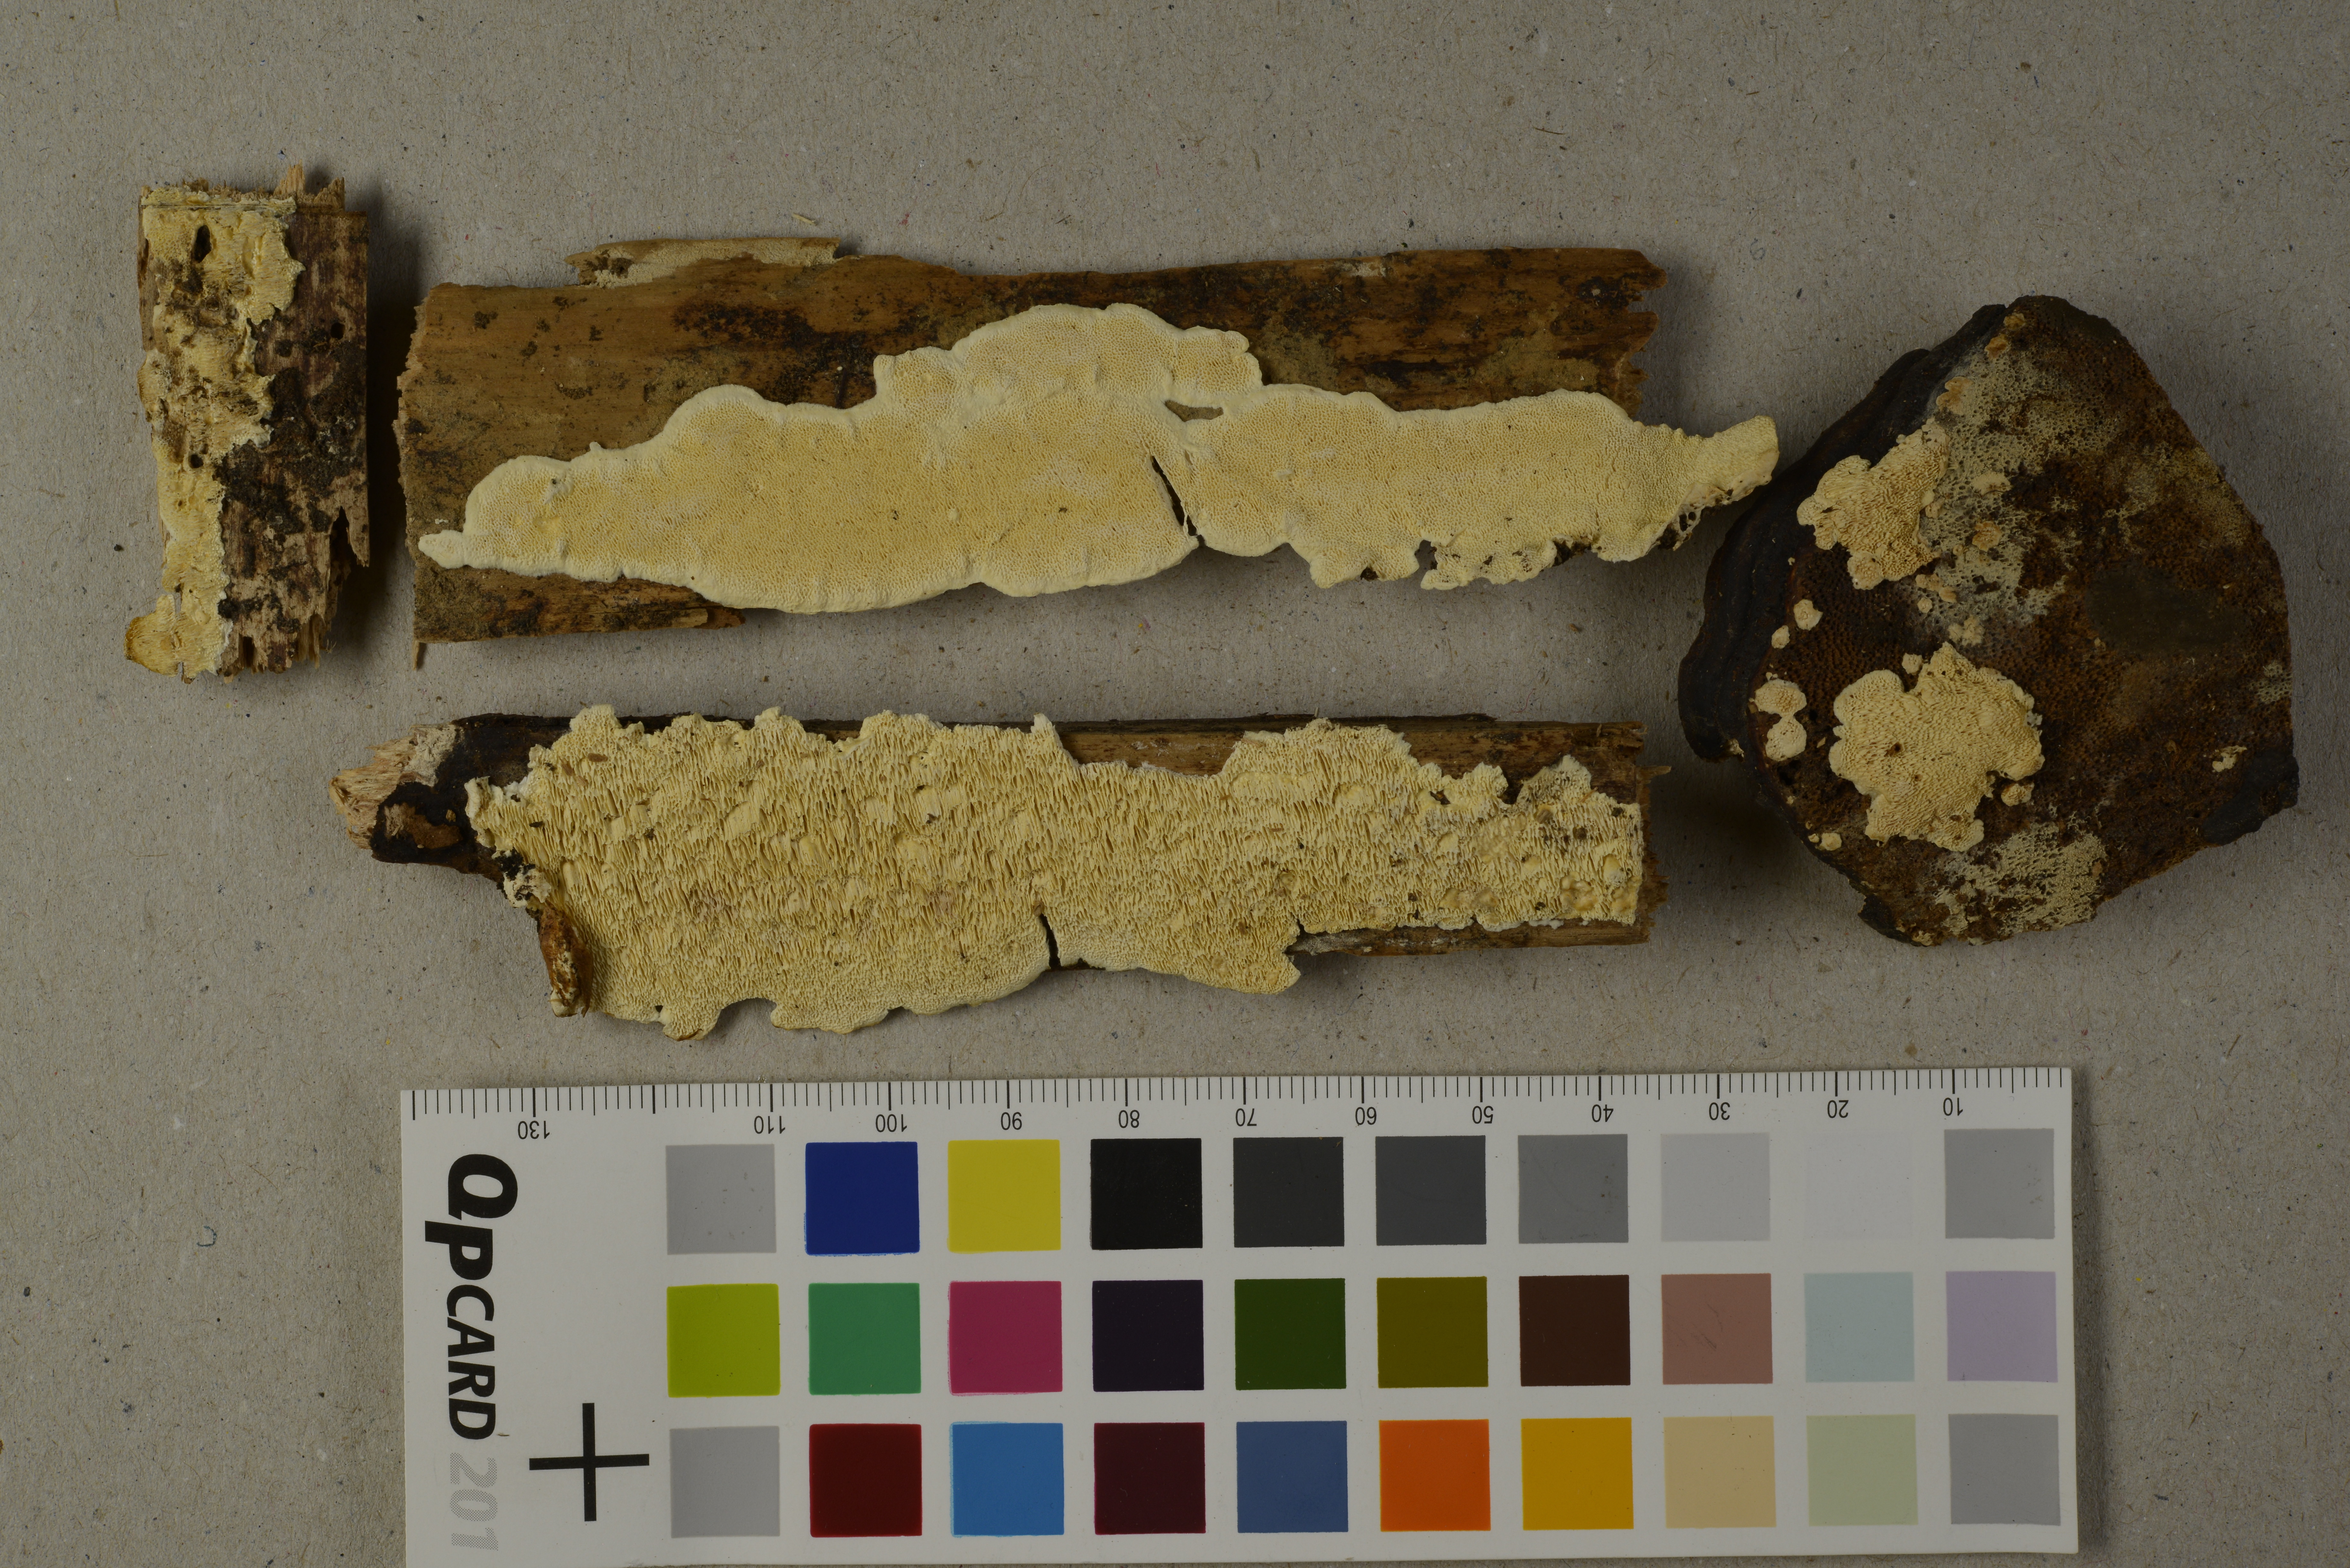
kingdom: Fungi
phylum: Basidiomycota
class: Agaricomycetes
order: Polyporales
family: Steccherinaceae
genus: Flaviporus
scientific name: Flaviporus citrinellus
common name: Lemon-colored antrodiella
